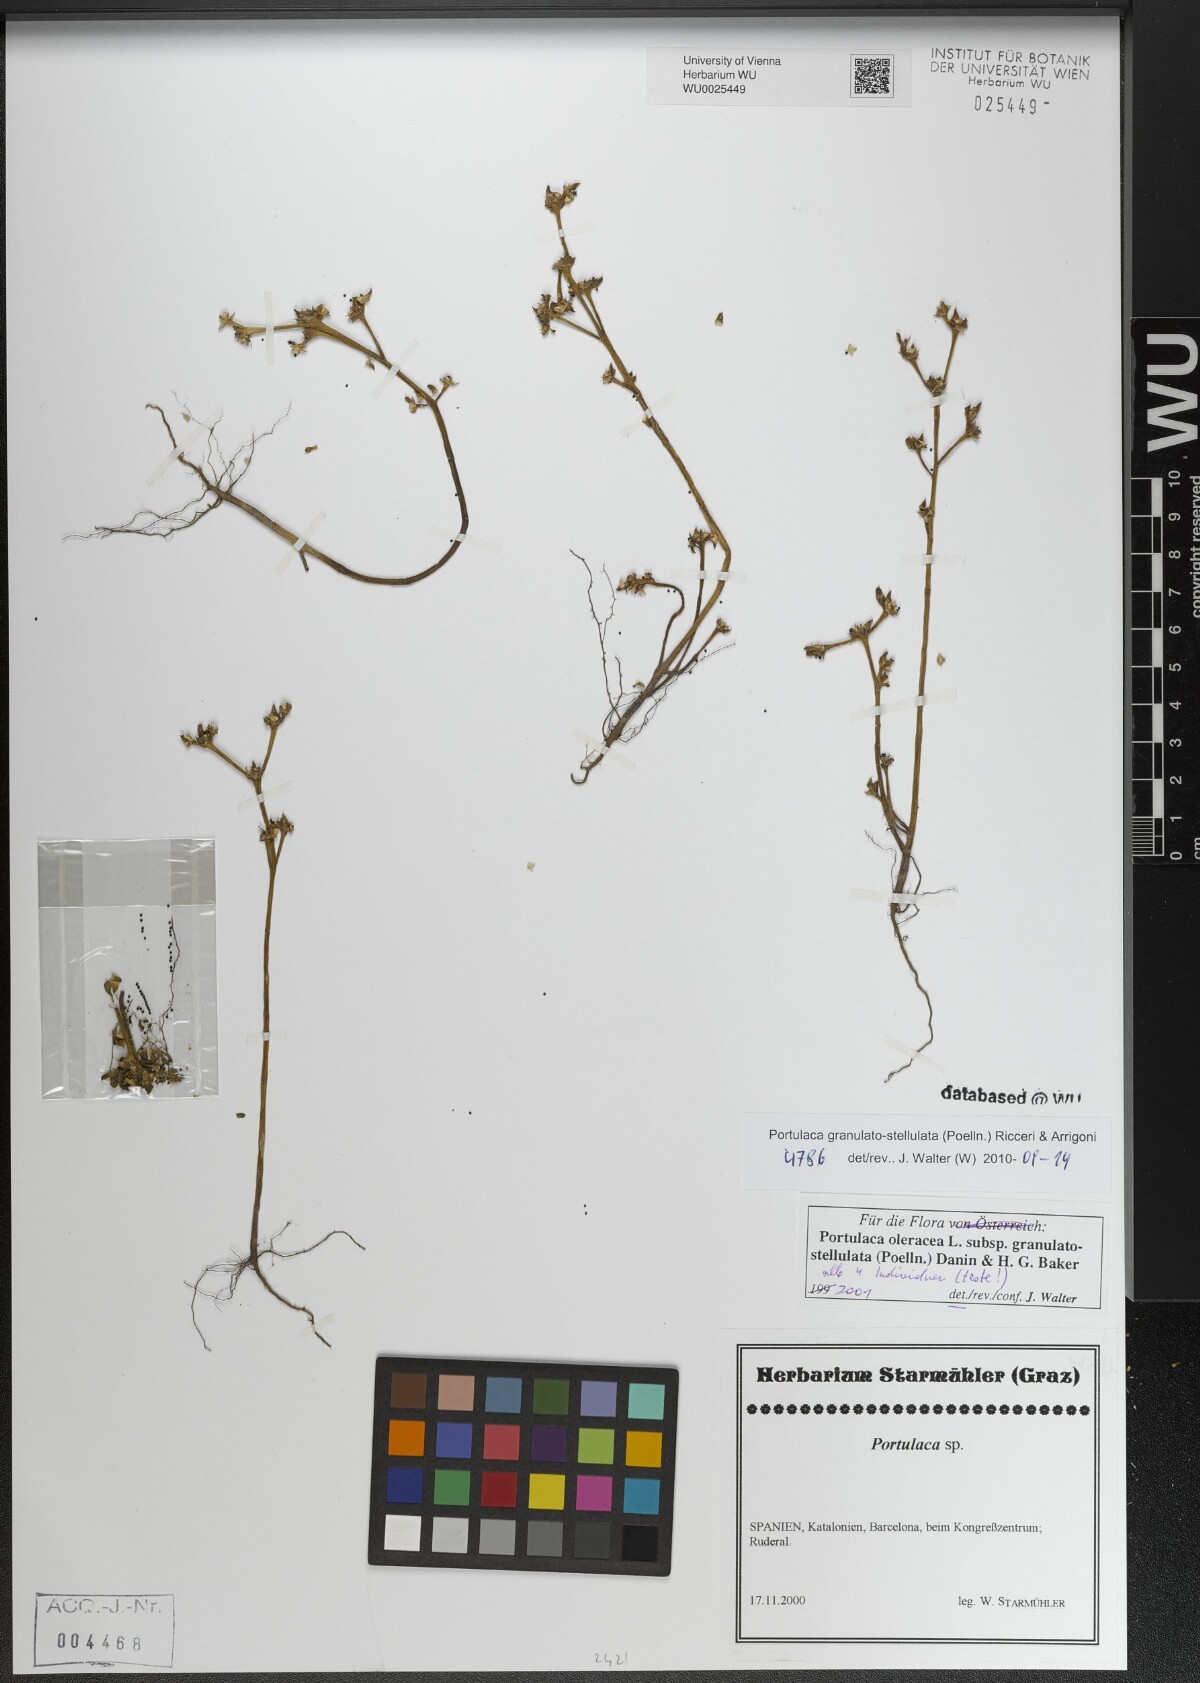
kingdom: Plantae
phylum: Tracheophyta
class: Magnoliopsida
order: Caryophyllales
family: Portulacaceae
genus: Portulaca
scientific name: Portulaca granulatostellulata
